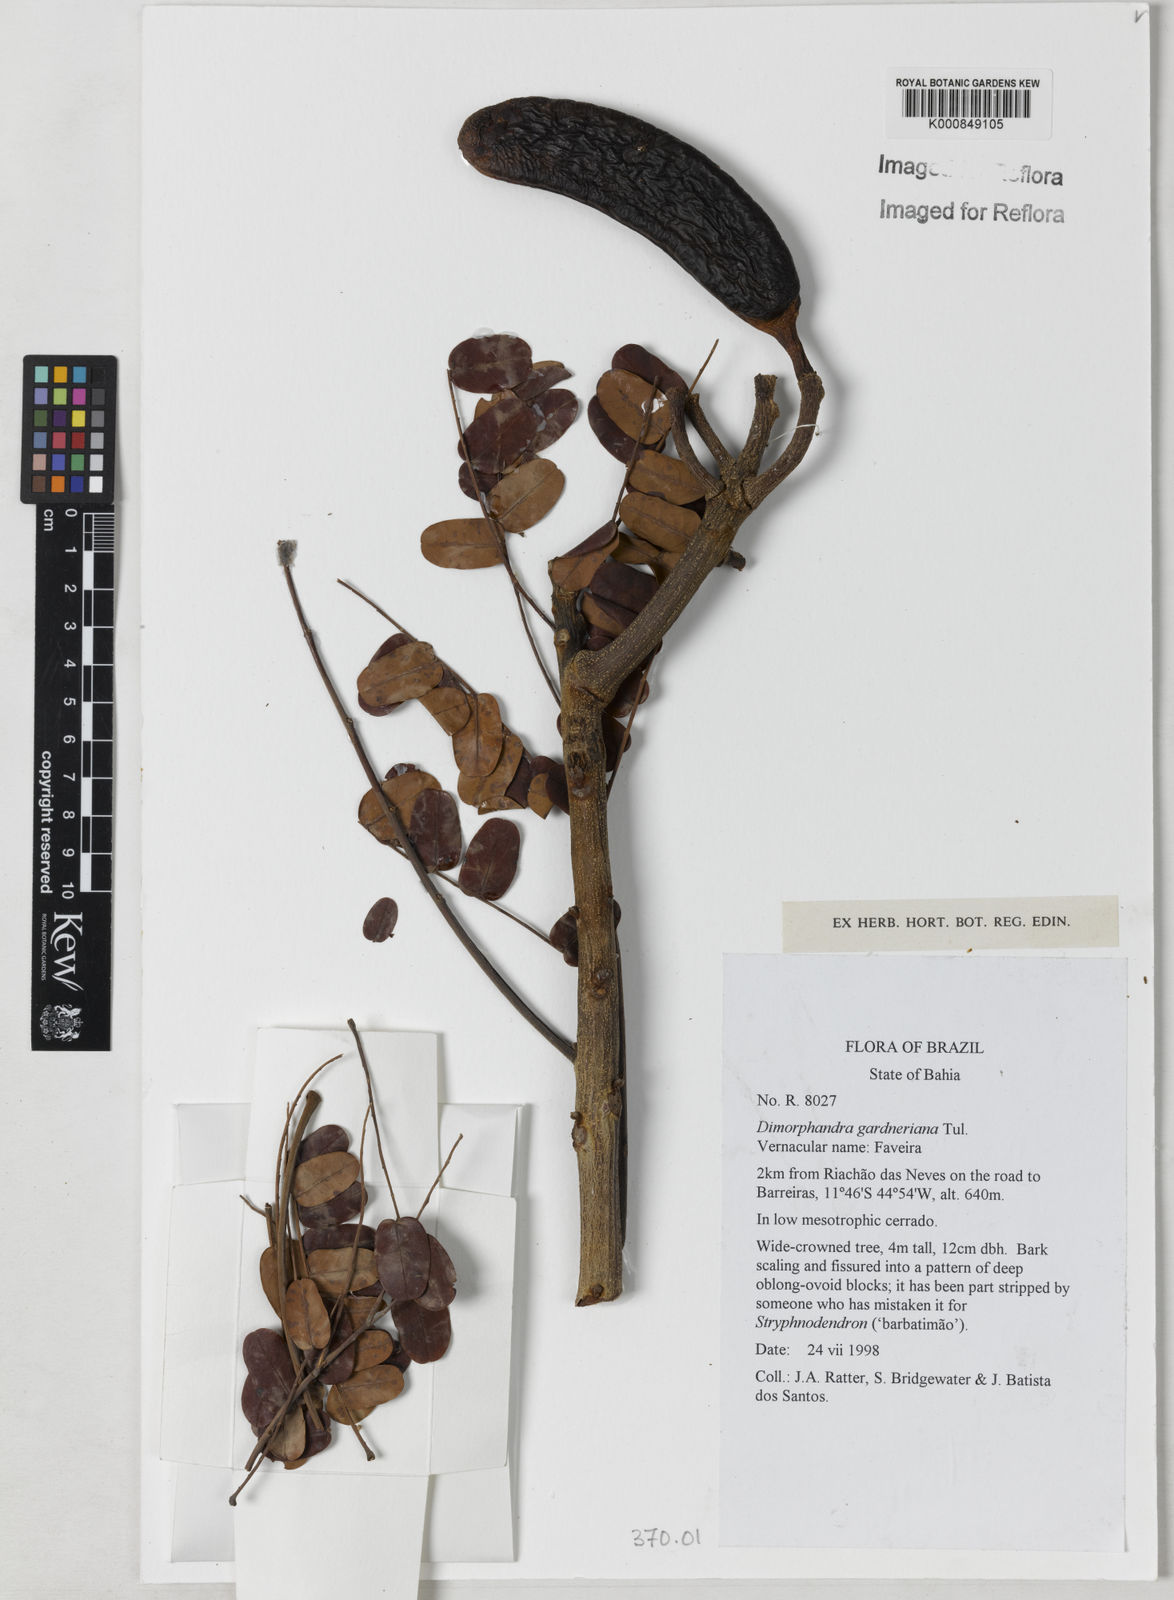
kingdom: Plantae
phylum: Tracheophyta
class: Magnoliopsida
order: Fabales
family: Fabaceae
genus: Dimorphandra
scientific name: Dimorphandra gardneriana
